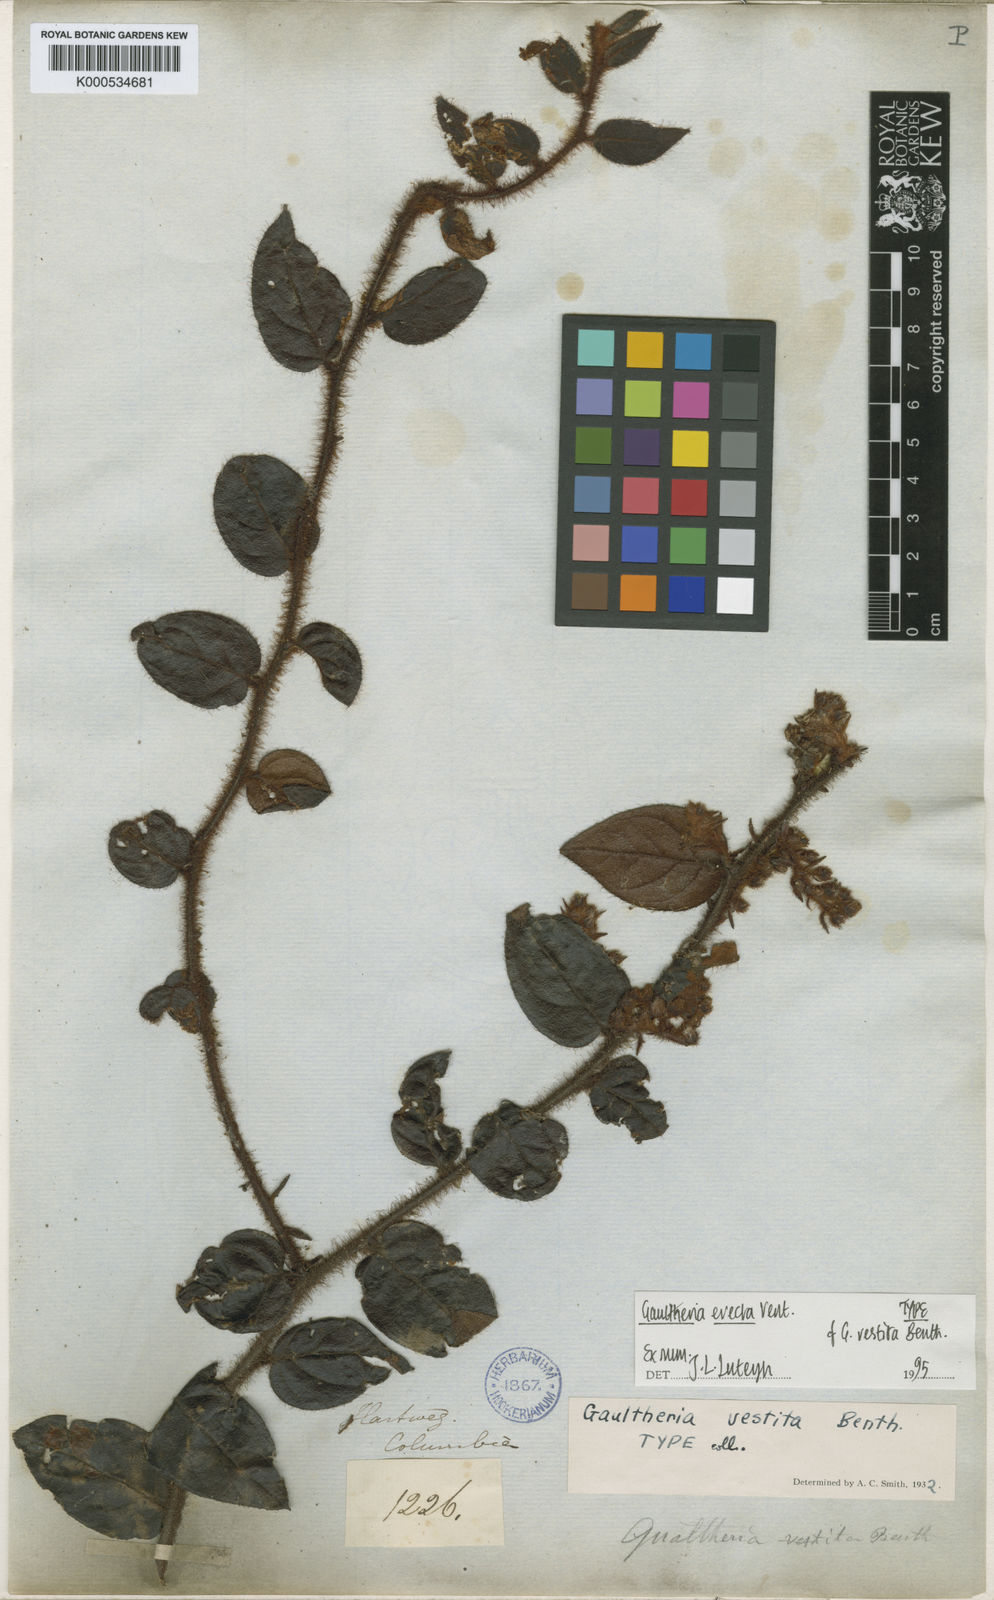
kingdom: Plantae
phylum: Tracheophyta
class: Magnoliopsida
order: Ericales
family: Ericaceae
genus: Gaultheria
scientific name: Gaultheria erecta
